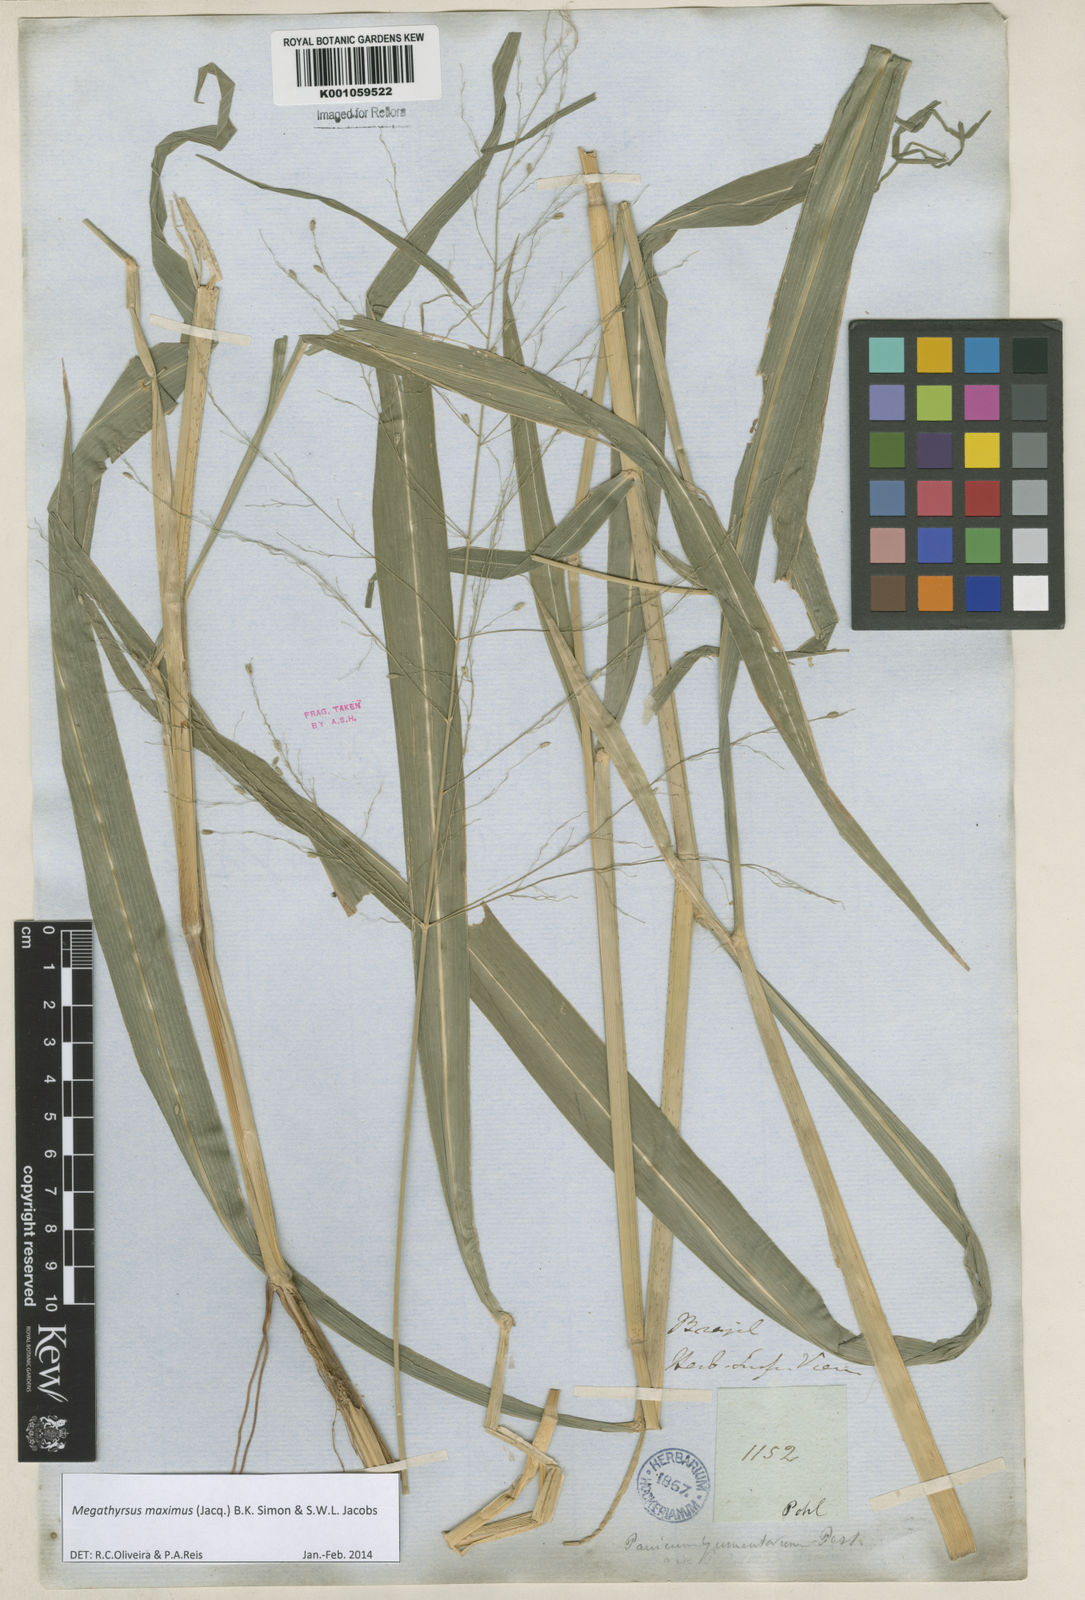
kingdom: Plantae
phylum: Tracheophyta
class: Liliopsida
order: Poales
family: Poaceae
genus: Megathyrsus
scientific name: Megathyrsus maximus
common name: Guineagrass
